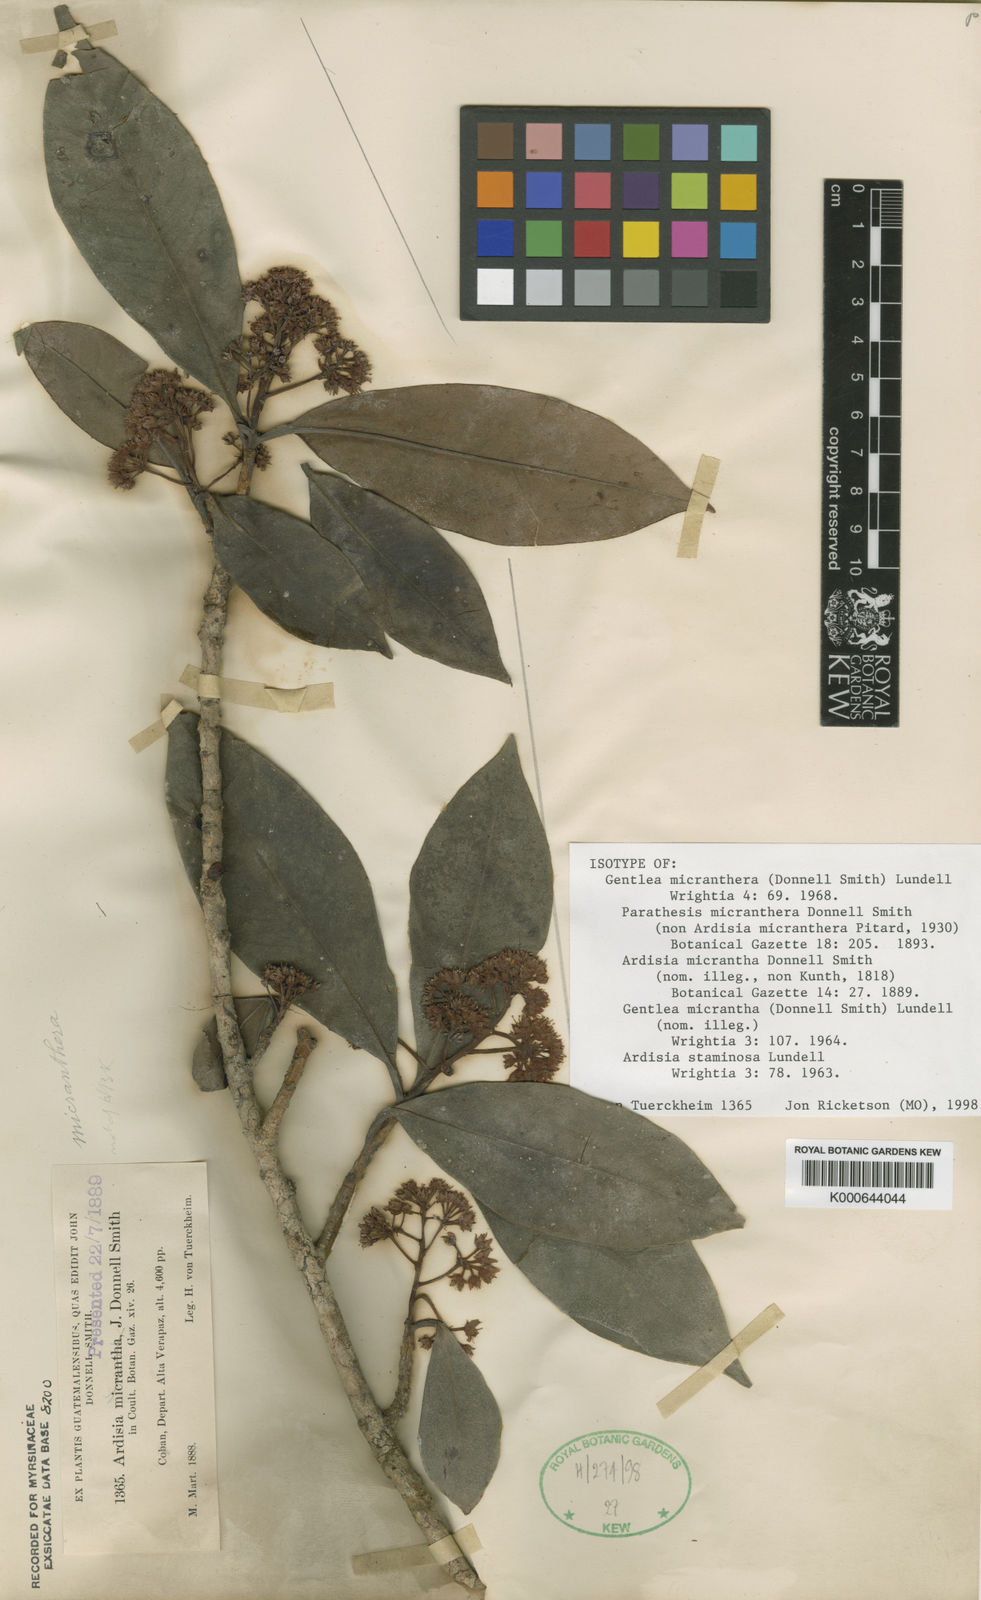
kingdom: Plantae
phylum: Tracheophyta
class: Magnoliopsida
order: Ericales
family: Primulaceae
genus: Gentlea
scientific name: Gentlea micranthera
